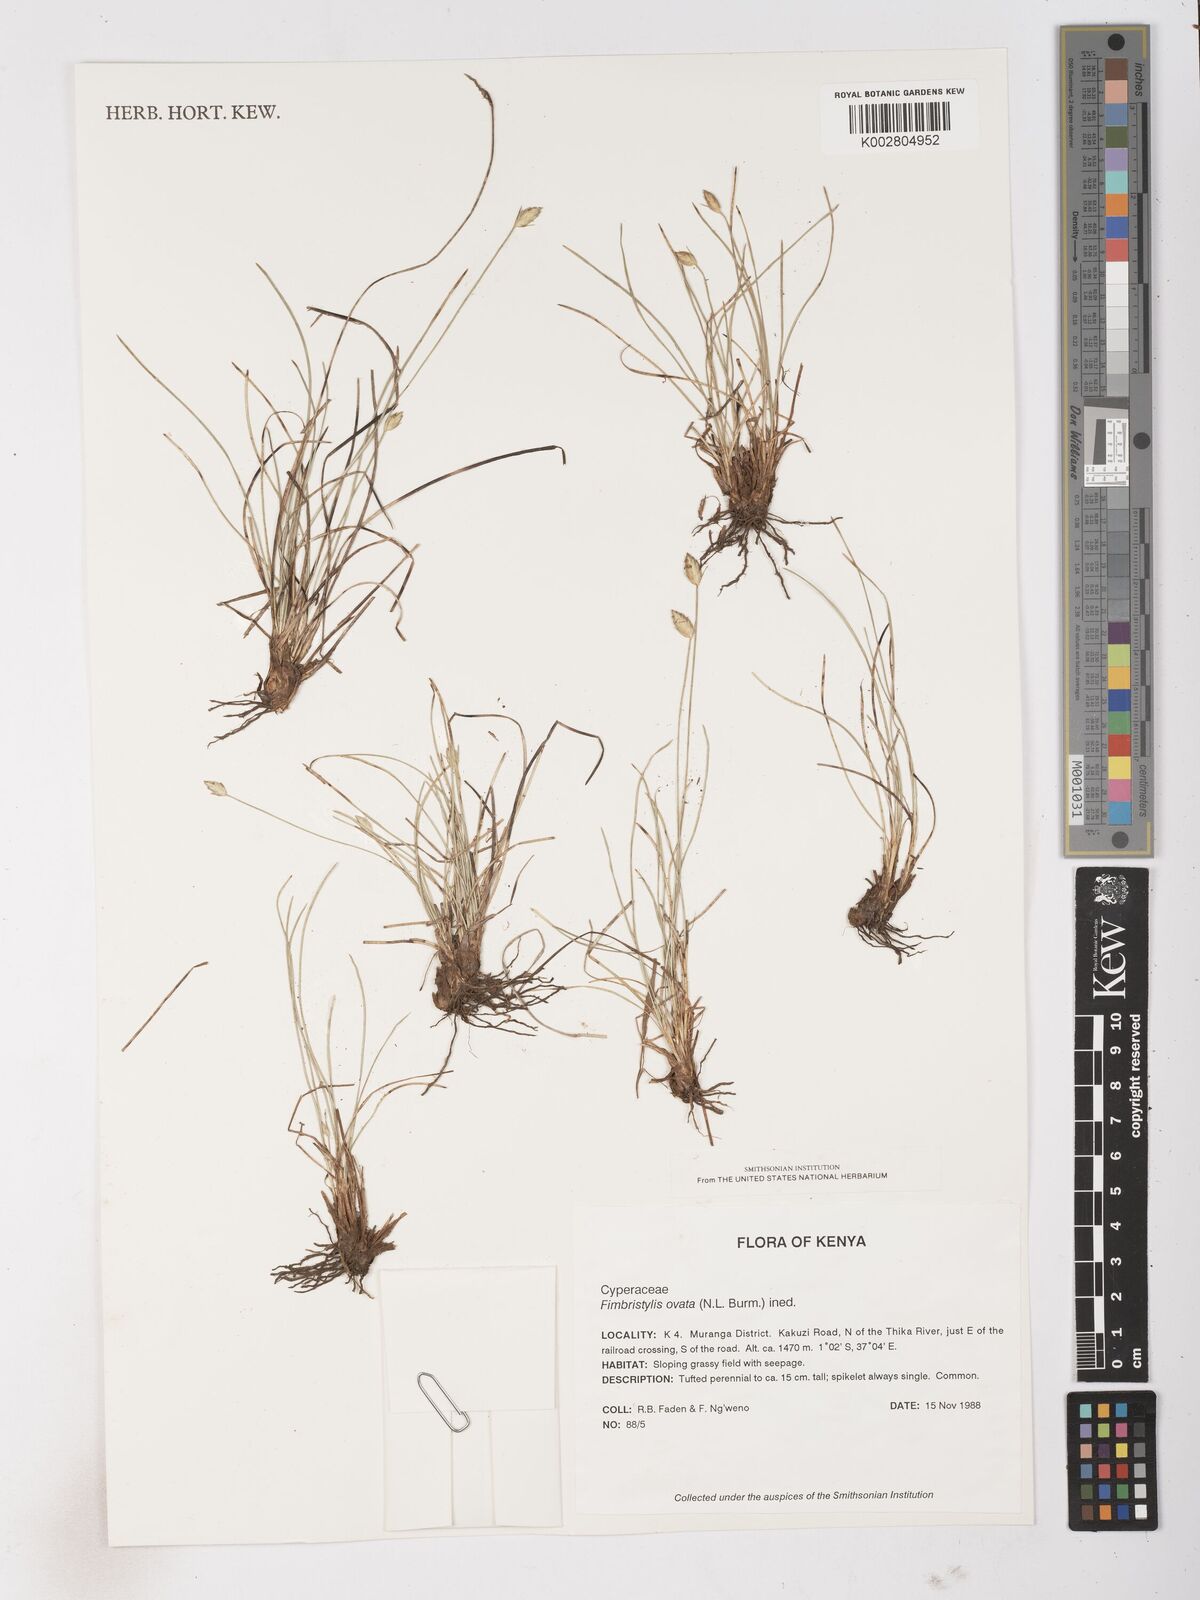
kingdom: Plantae
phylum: Tracheophyta
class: Liliopsida
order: Poales
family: Cyperaceae
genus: Abildgaardia
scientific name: Abildgaardia ovata
